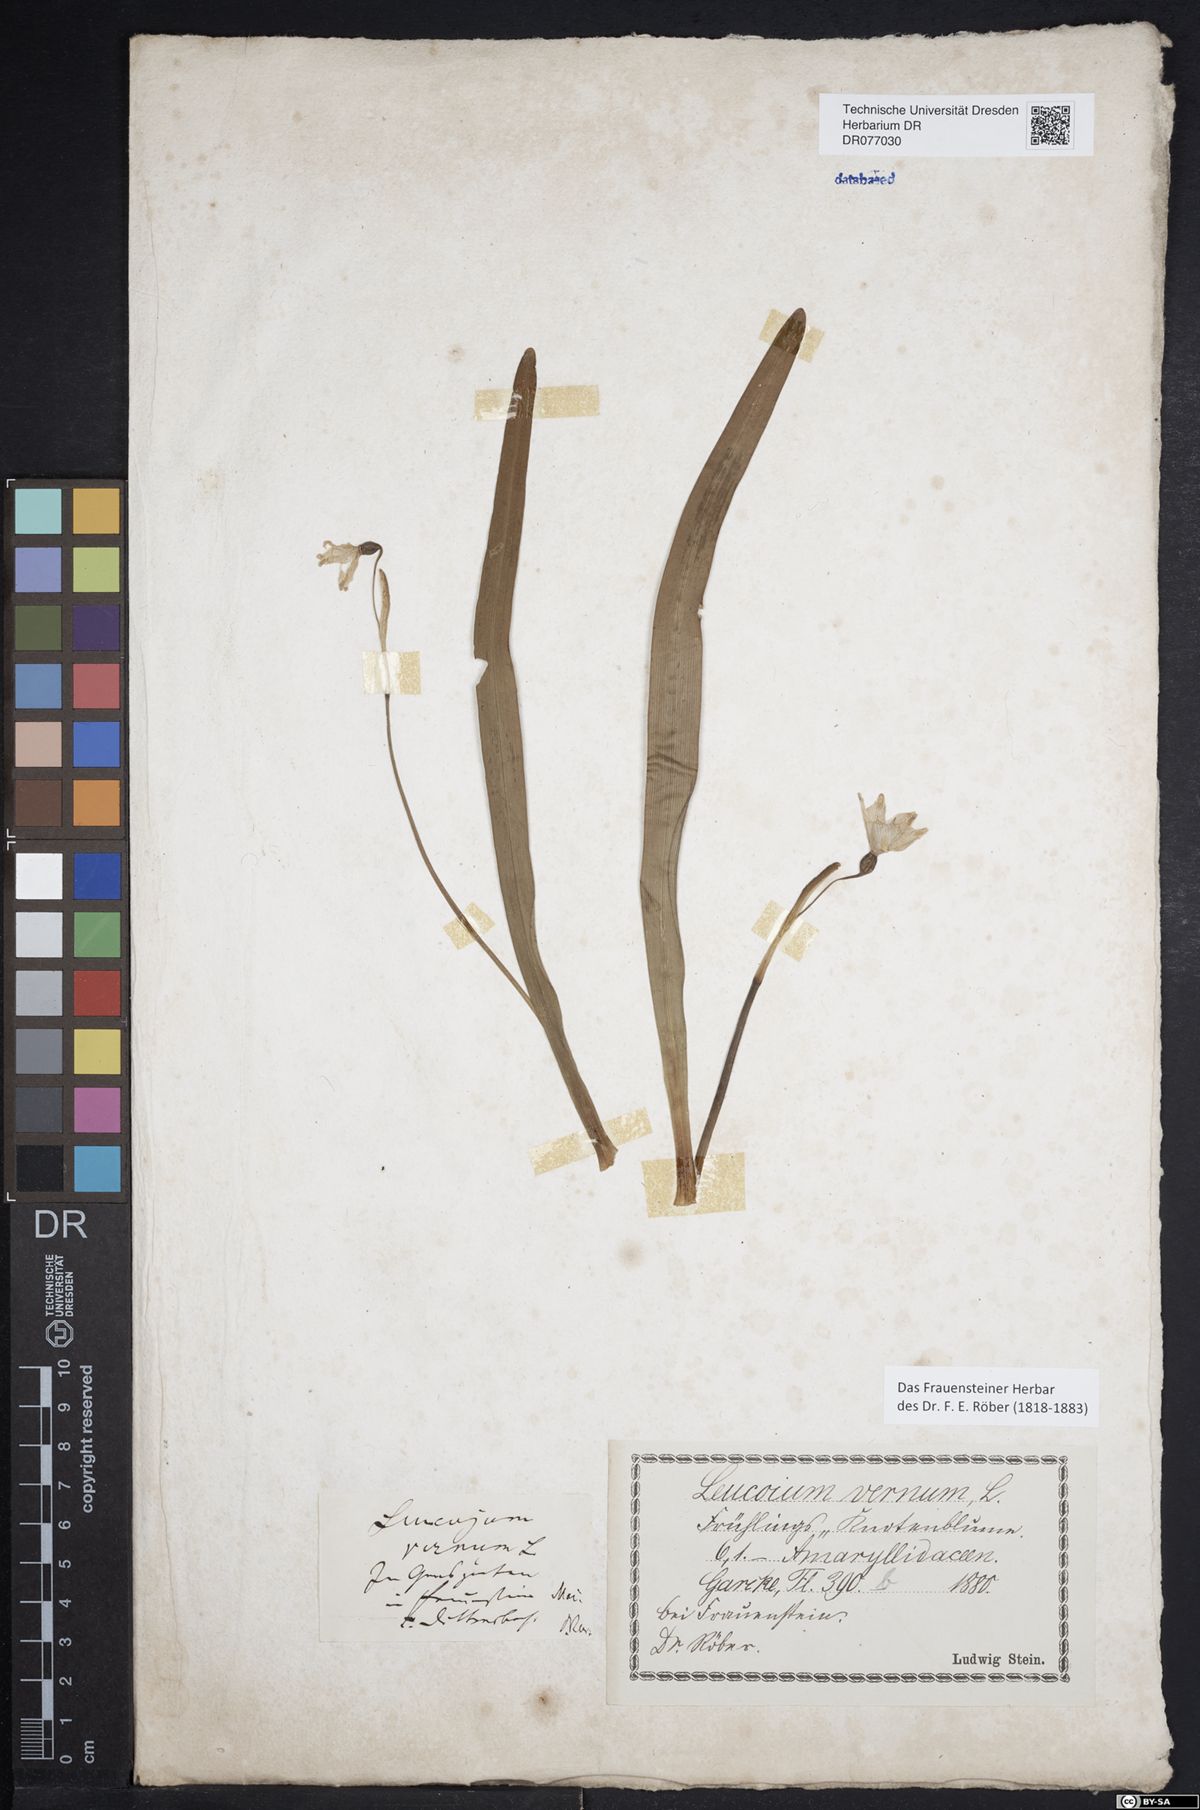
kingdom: Plantae
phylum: Tracheophyta
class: Liliopsida
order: Asparagales
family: Amaryllidaceae
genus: Leucojum
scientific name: Leucojum vernum
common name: Spring snowflake
